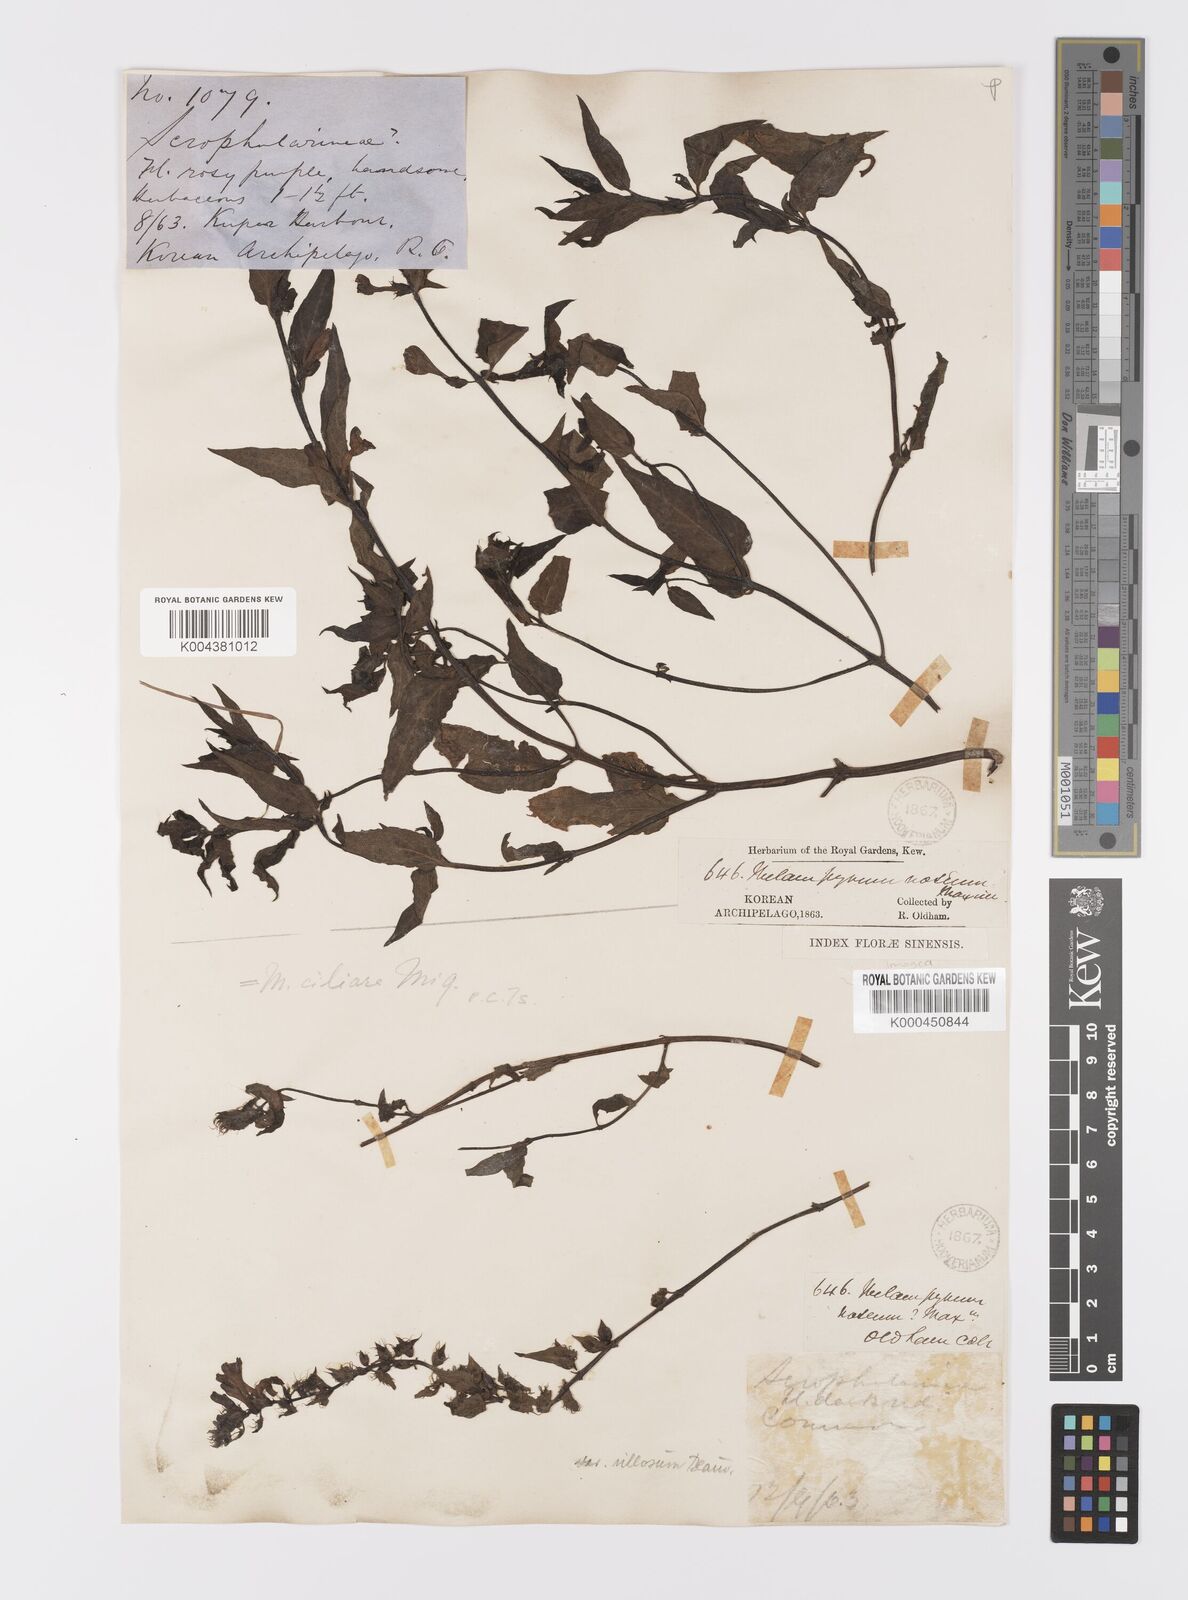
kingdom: Plantae
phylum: Tracheophyta
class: Magnoliopsida
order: Lamiales
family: Orobanchaceae
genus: Melampyrum
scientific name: Melampyrum roseum
